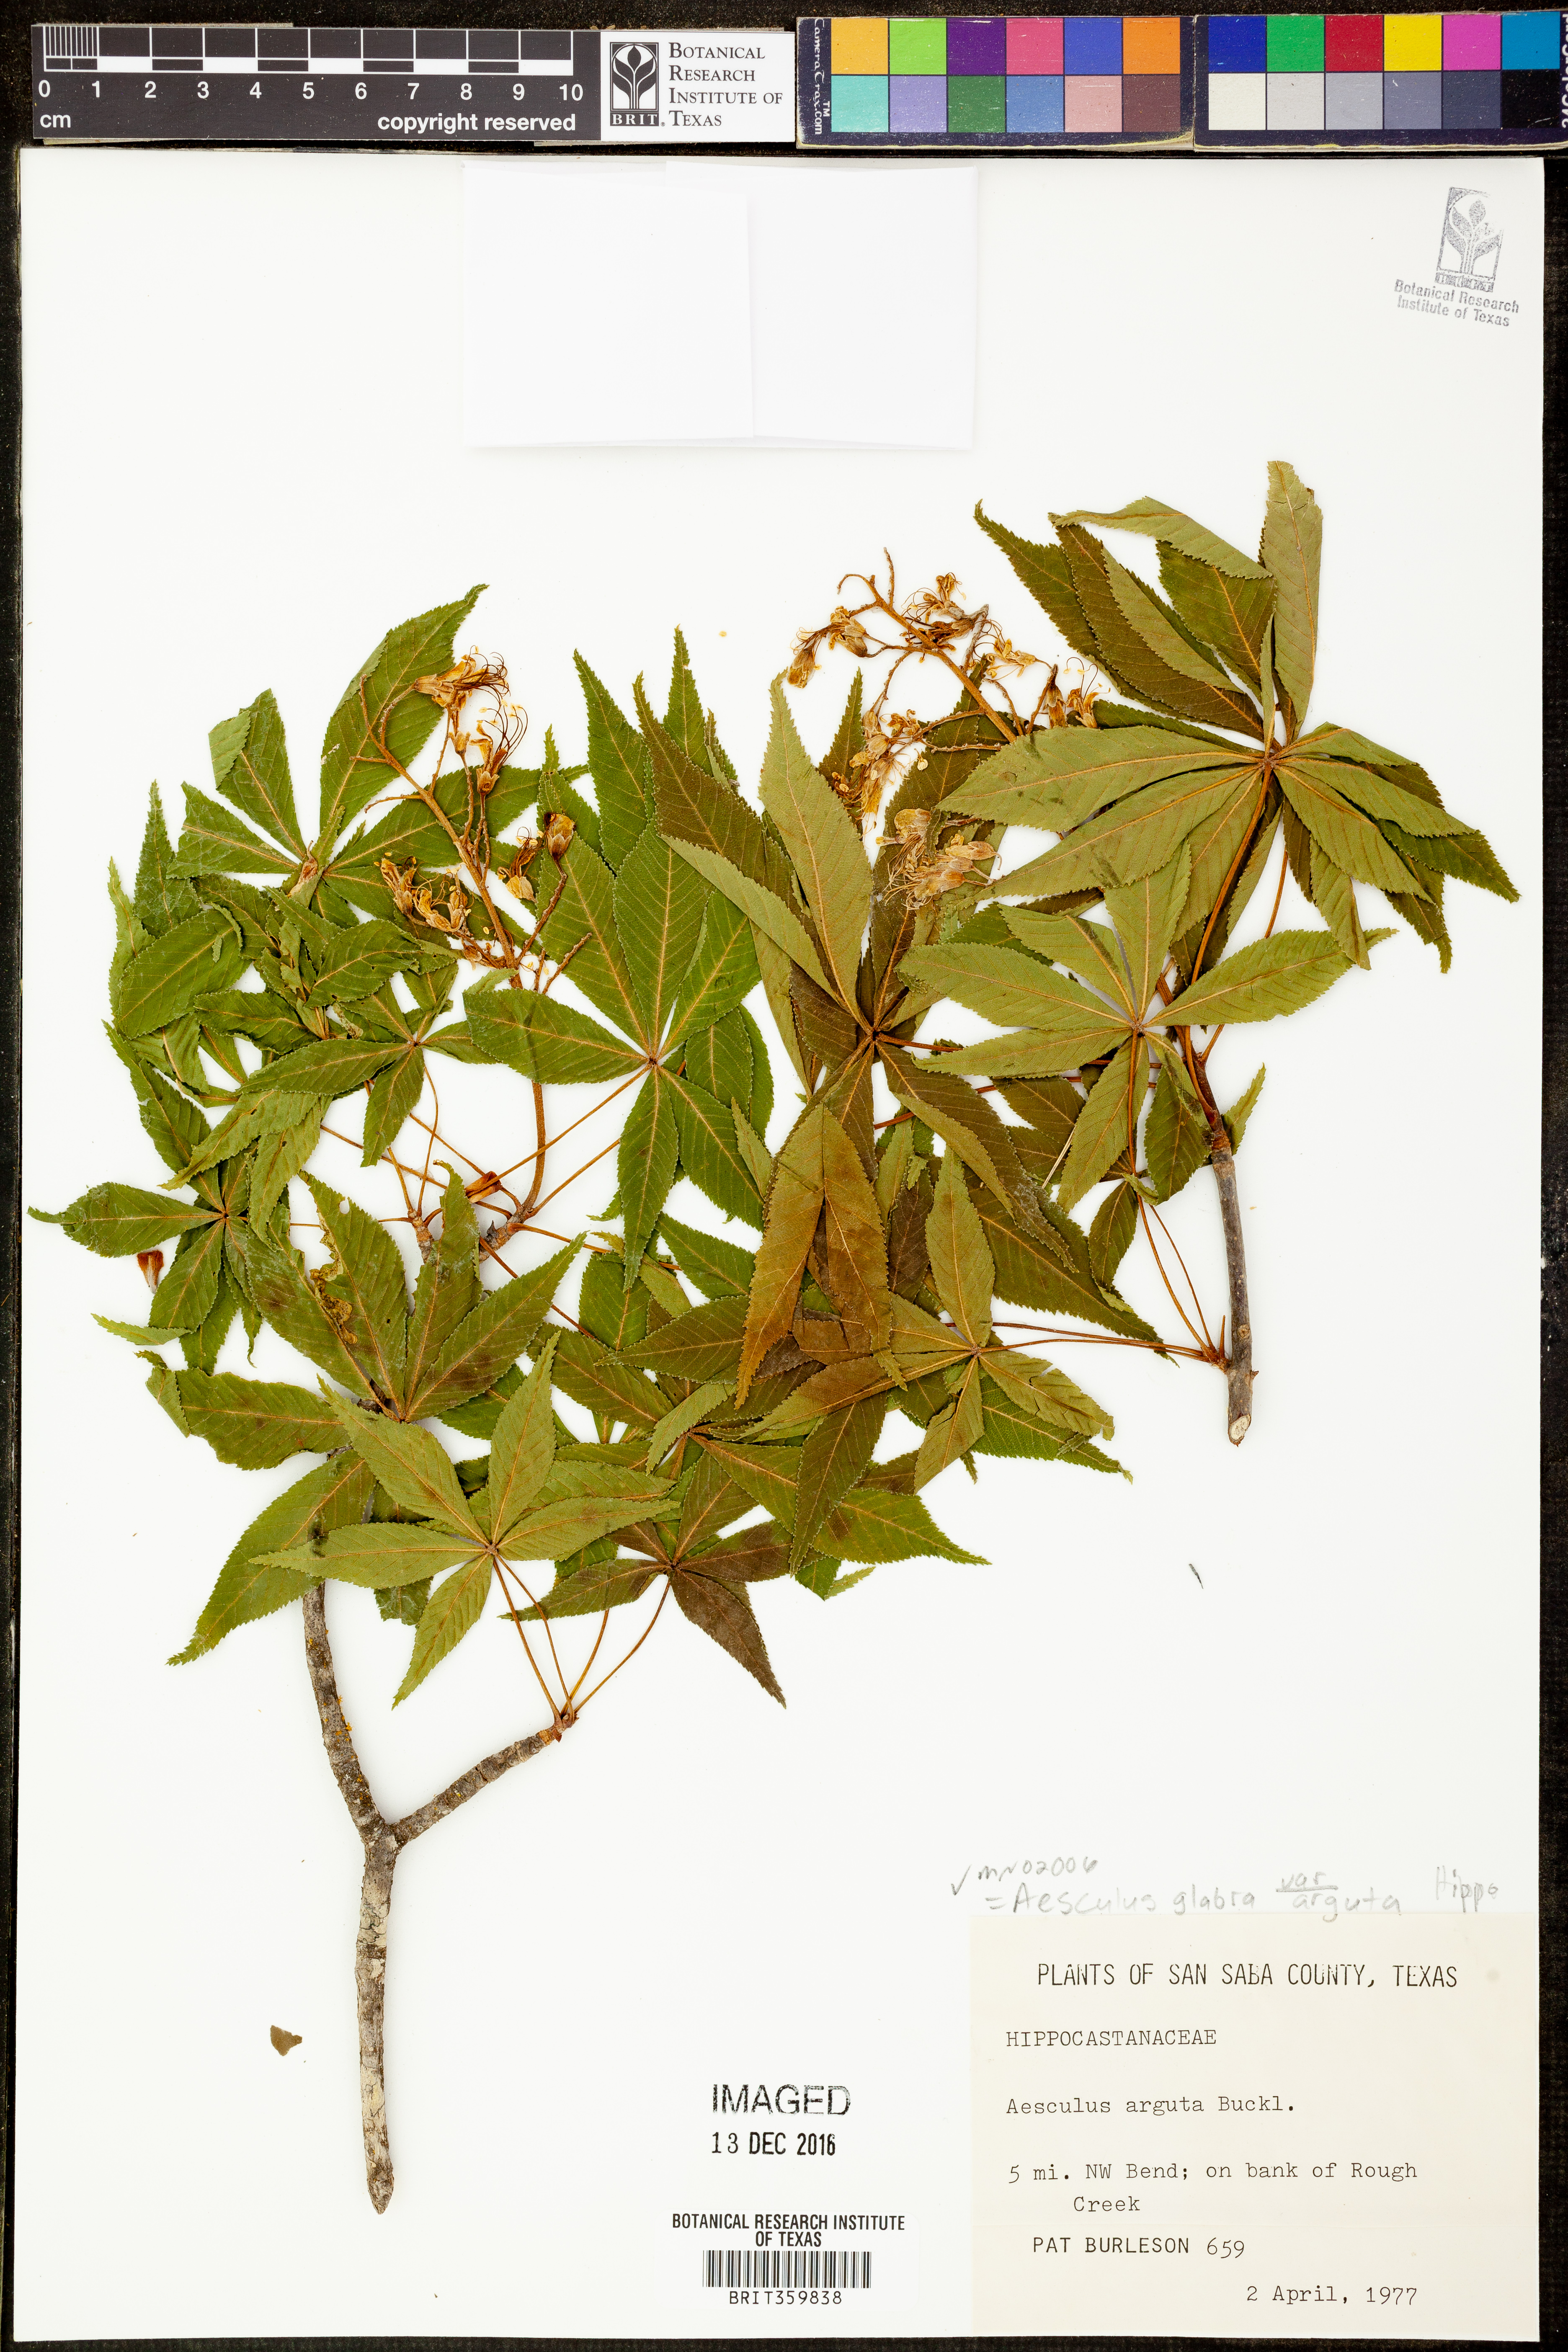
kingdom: Plantae
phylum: Tracheophyta
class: Magnoliopsida
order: Sapindales
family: Sapindaceae
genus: Aesculus
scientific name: Aesculus glabra
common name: Ohio buckeye
